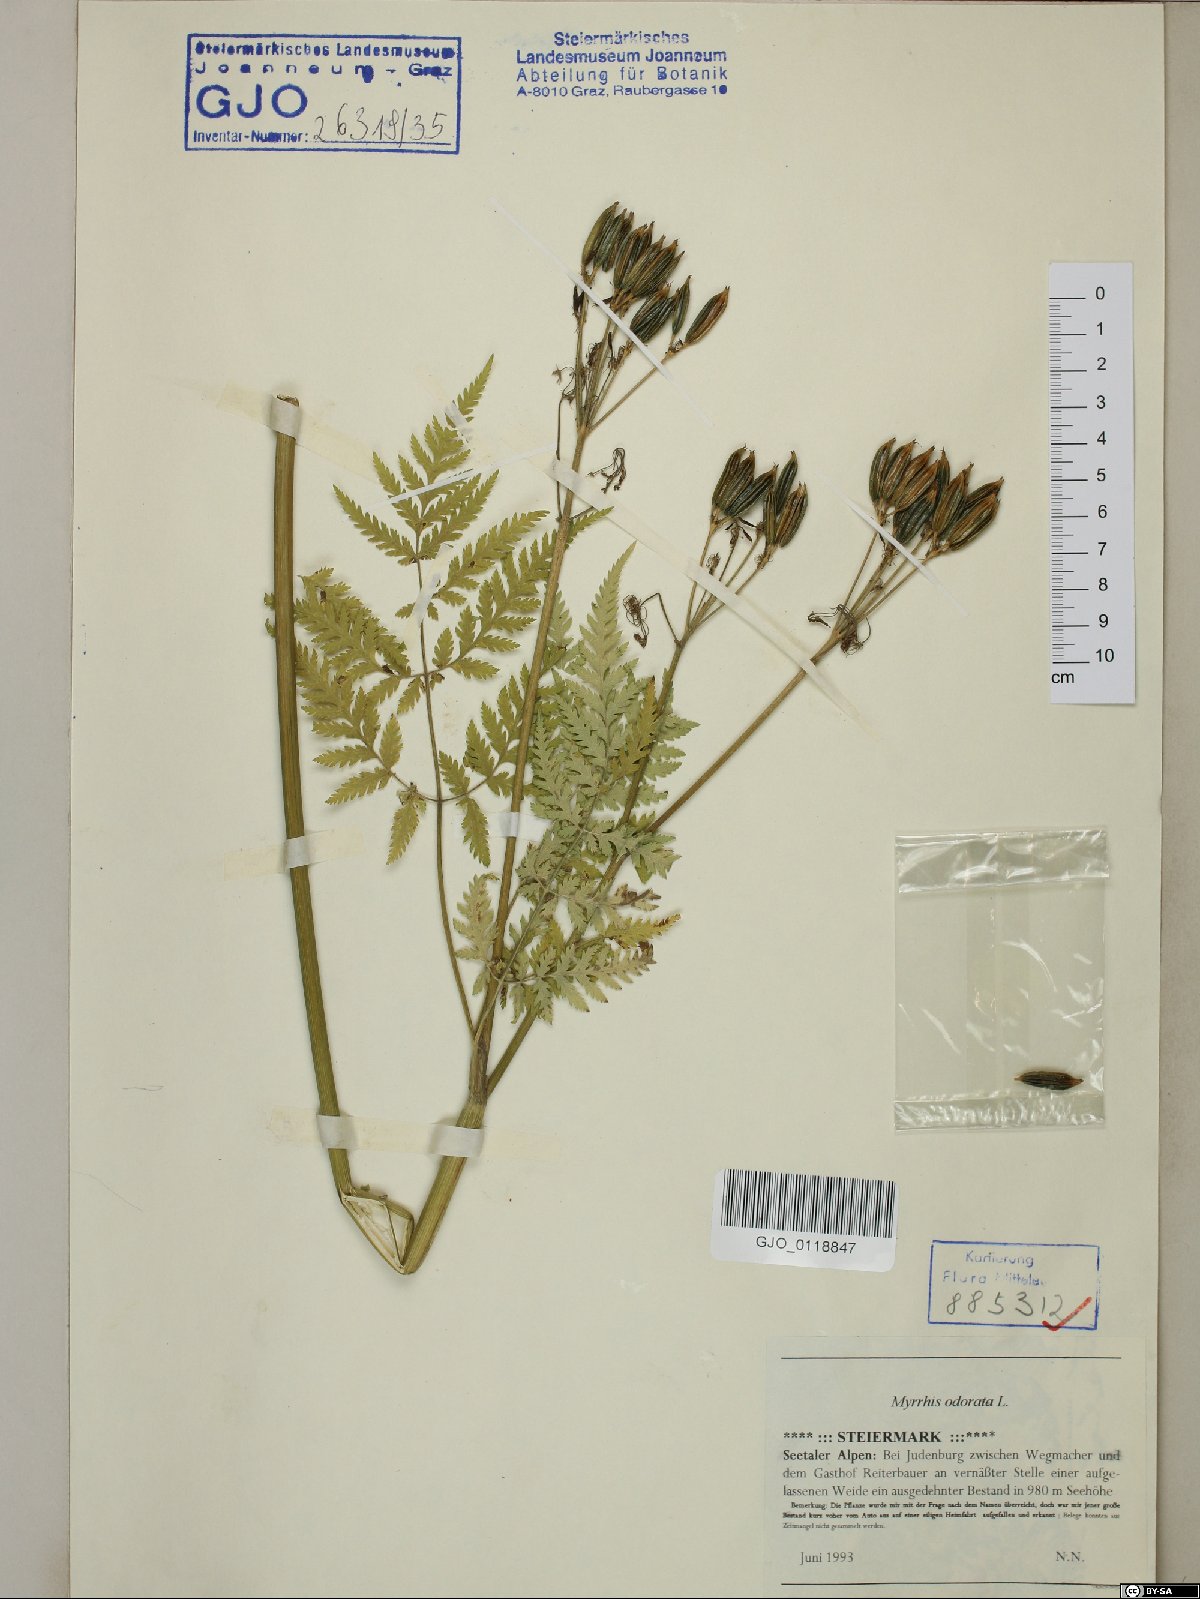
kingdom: Plantae
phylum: Tracheophyta
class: Magnoliopsida
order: Apiales
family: Apiaceae
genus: Myrrhis
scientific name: Myrrhis odorata
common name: Sweet cicely
